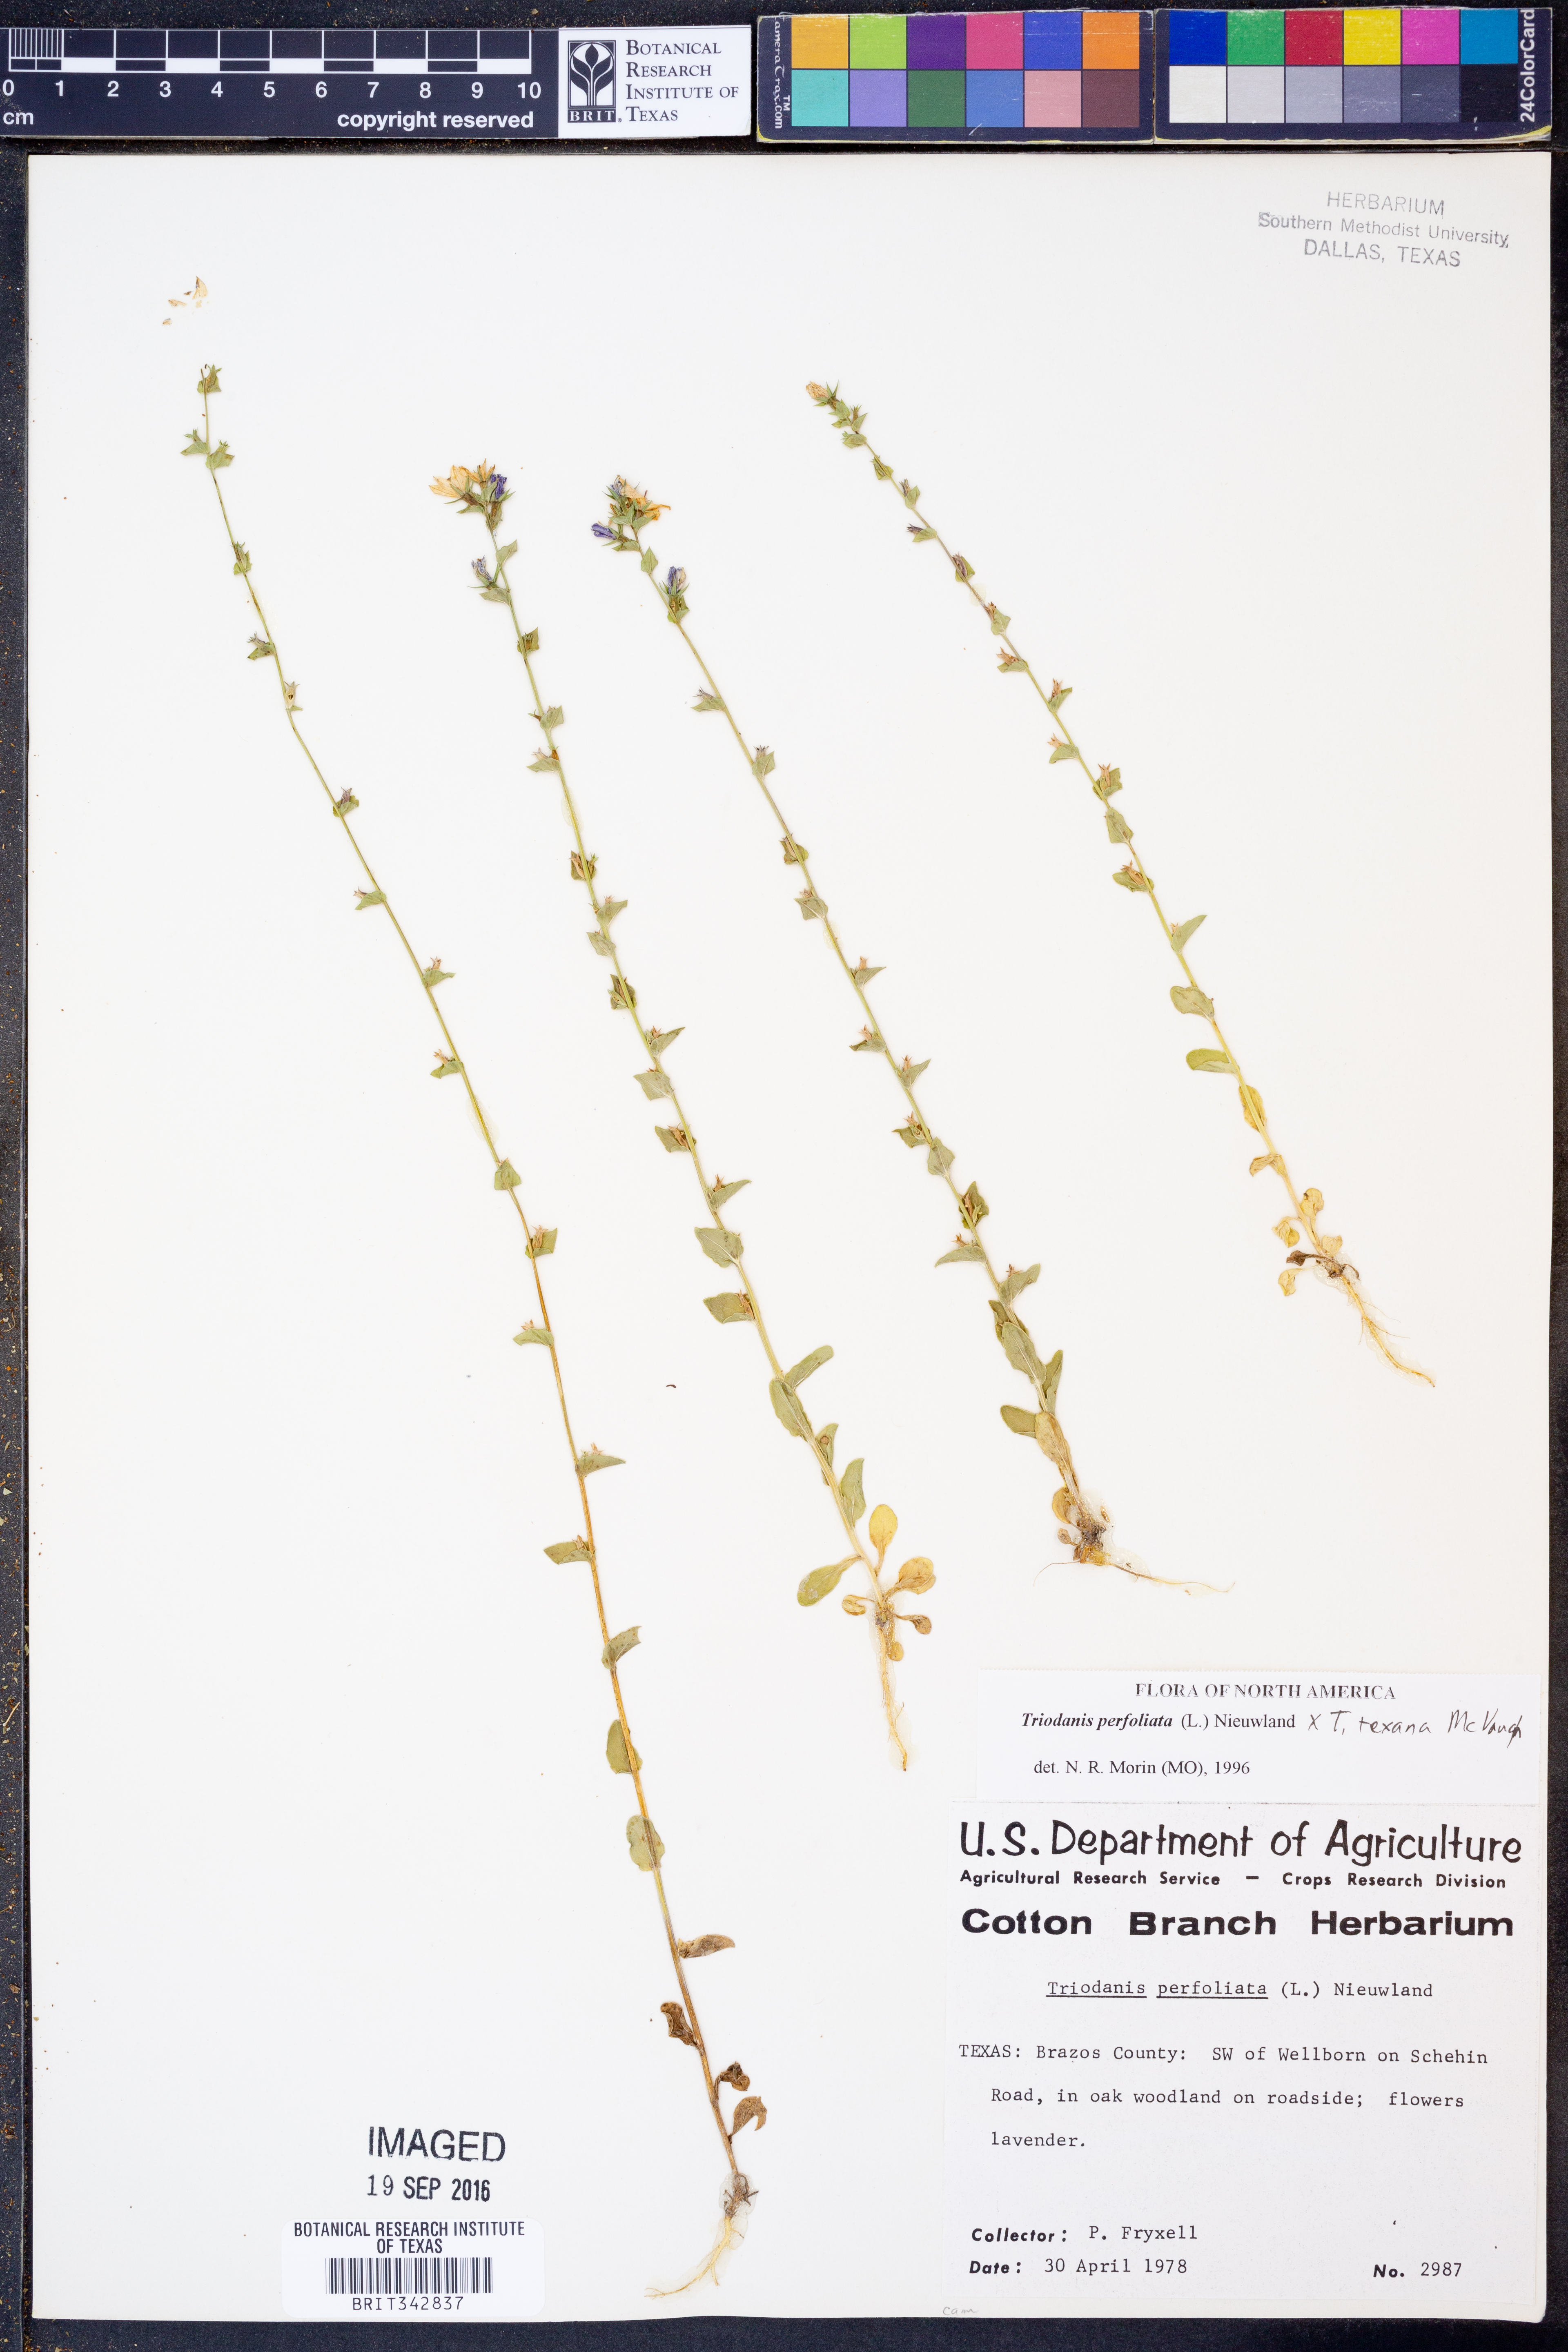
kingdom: Plantae
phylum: Tracheophyta
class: Magnoliopsida
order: Asterales
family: Campanulaceae
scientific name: Campanulaceae
